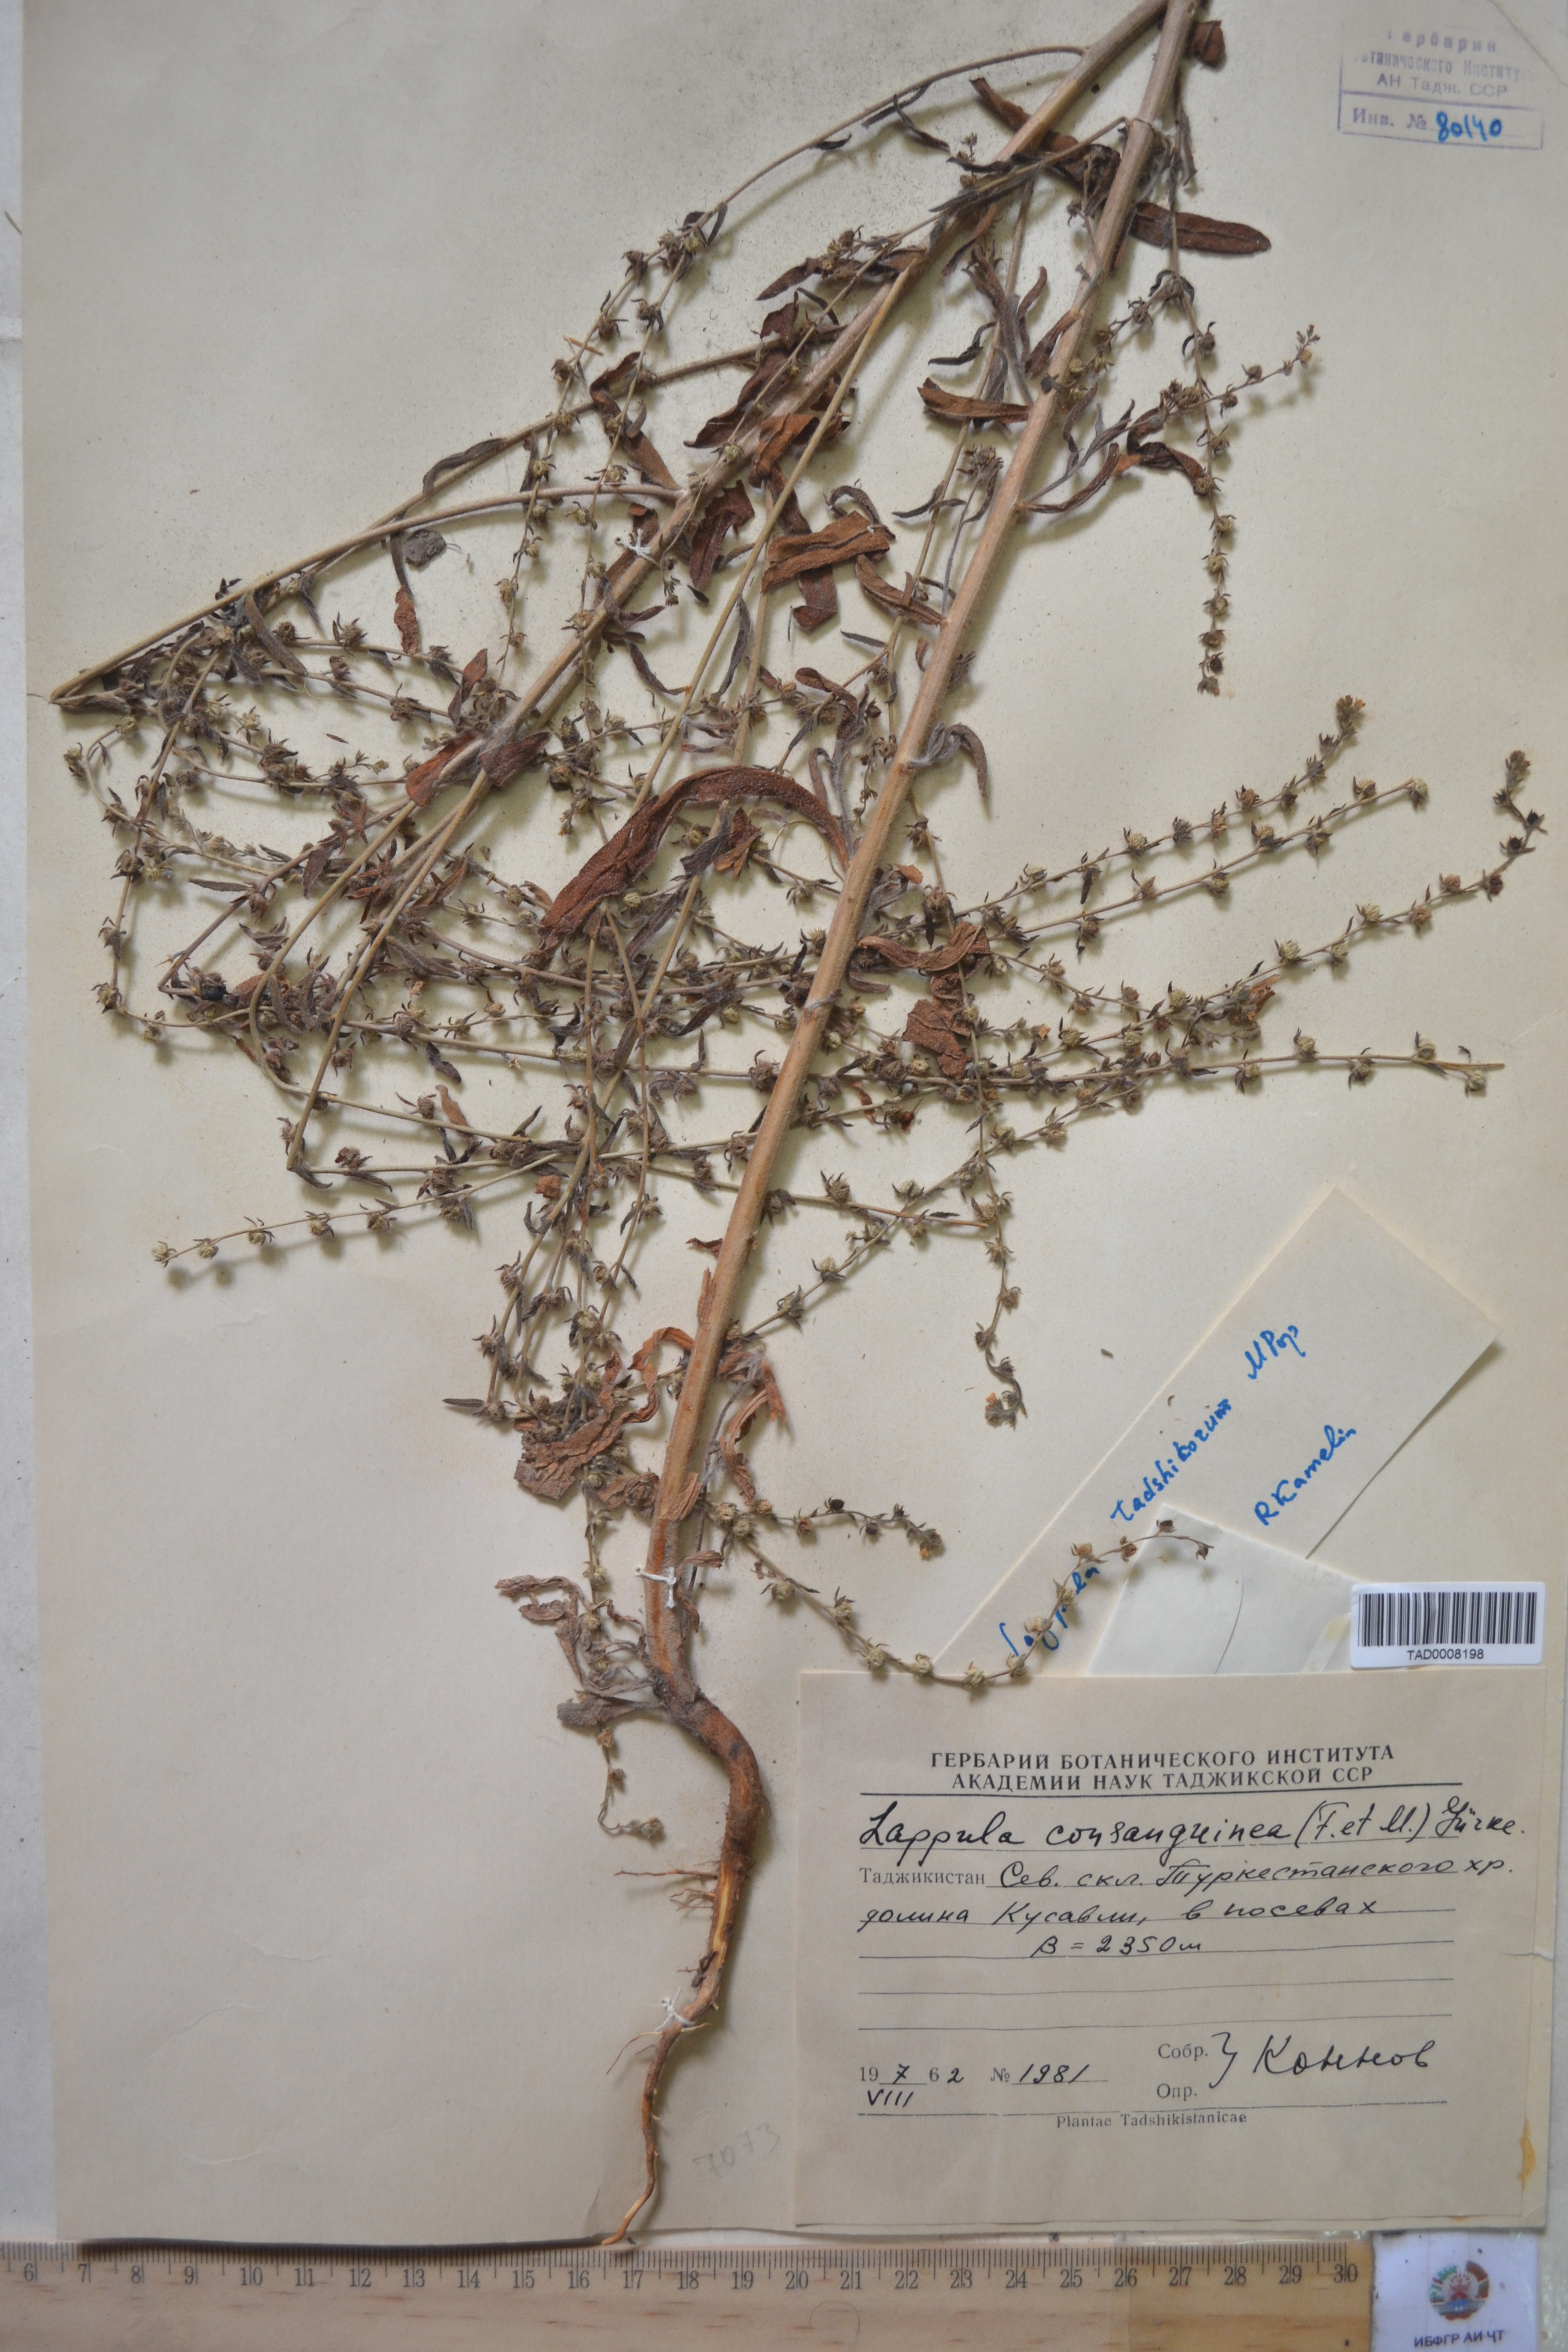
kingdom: Plantae
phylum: Tracheophyta
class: Magnoliopsida
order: Boraginales
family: Boraginaceae
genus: Lappula
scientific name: Lappula squarrosa
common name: European stickseed
